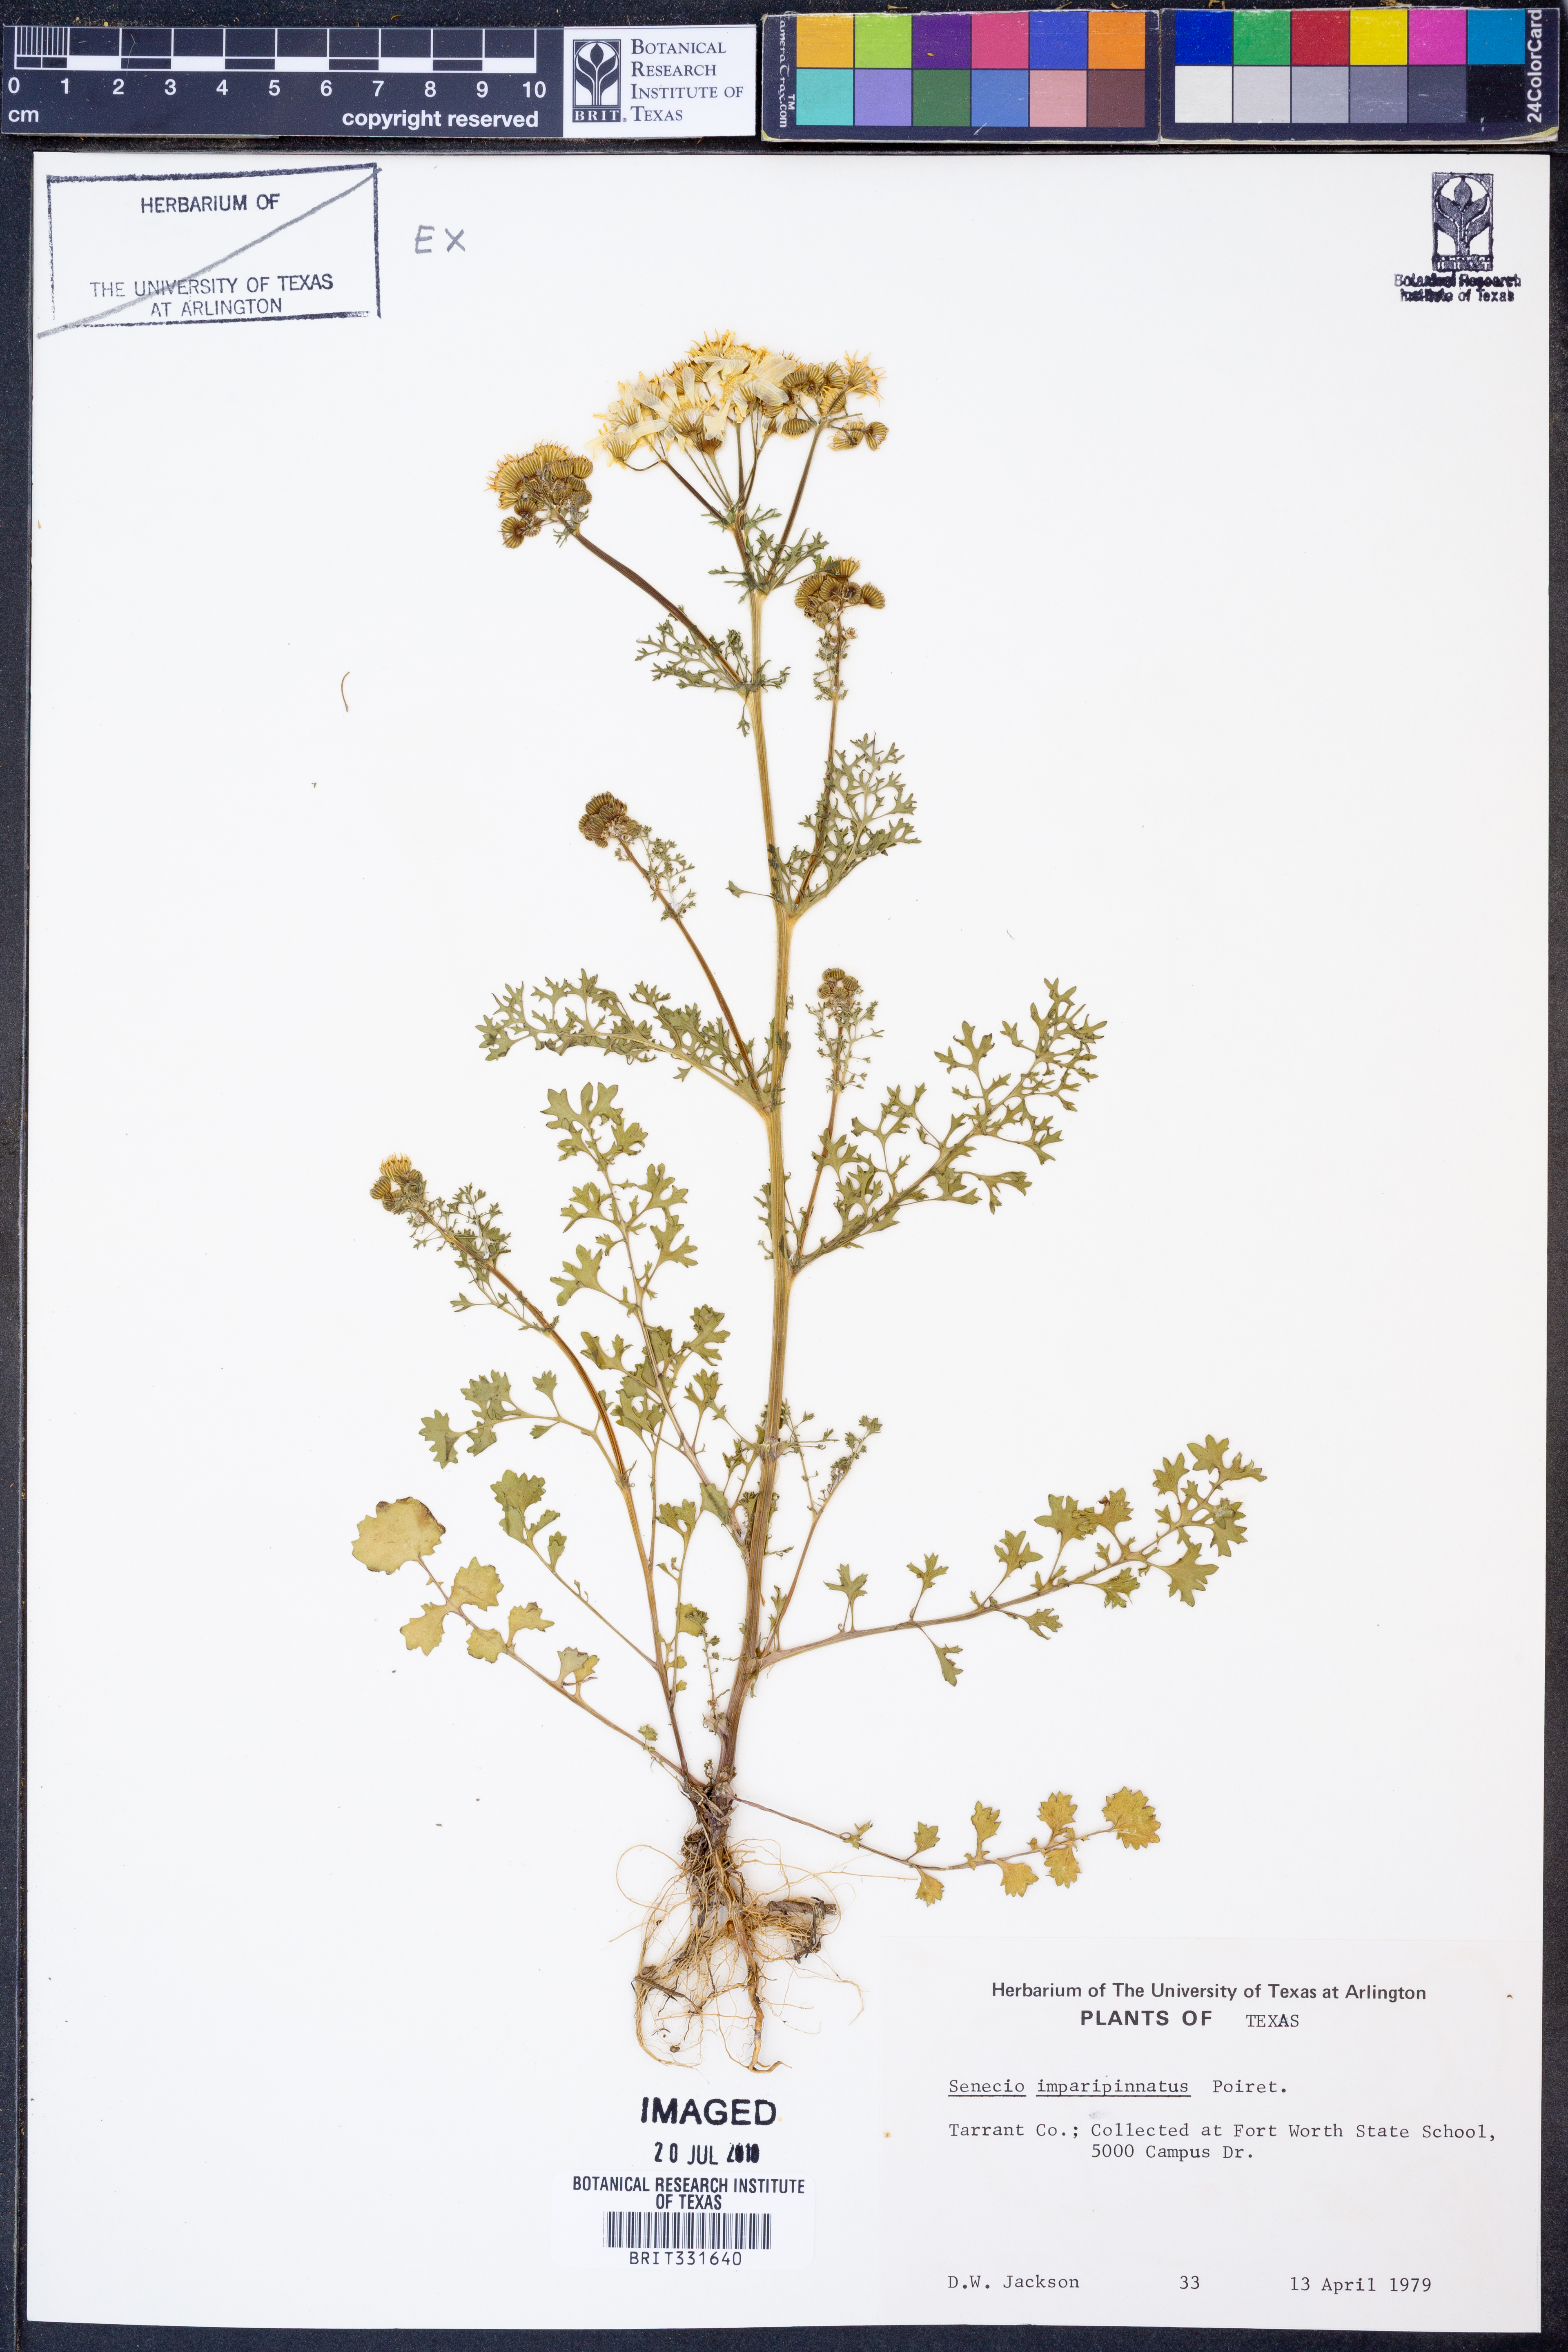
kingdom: Plantae
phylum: Tracheophyta
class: Magnoliopsida
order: Asterales
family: Asteraceae
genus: Packera
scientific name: Packera tampicana
